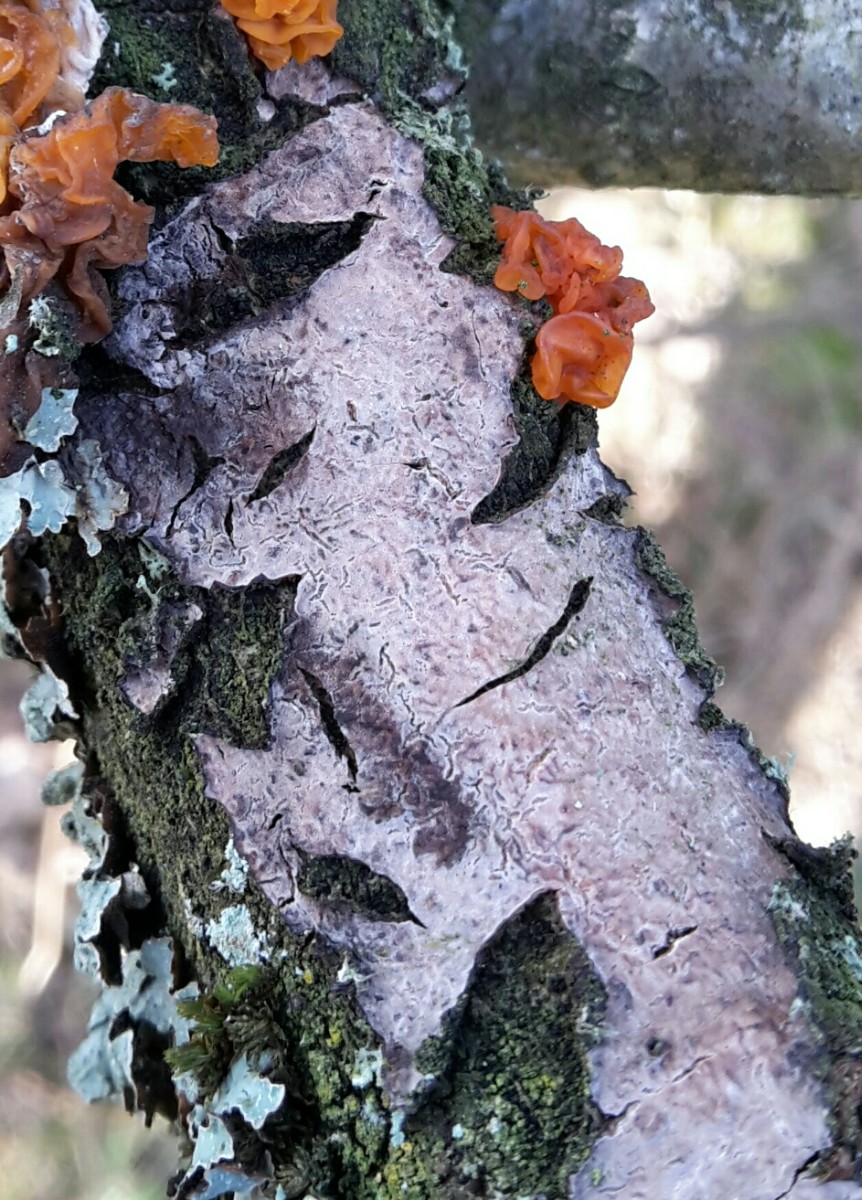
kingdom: Fungi
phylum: Basidiomycota
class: Agaricomycetes
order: Russulales
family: Peniophoraceae
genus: Peniophora
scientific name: Peniophora quercina
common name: ege-voksskind
